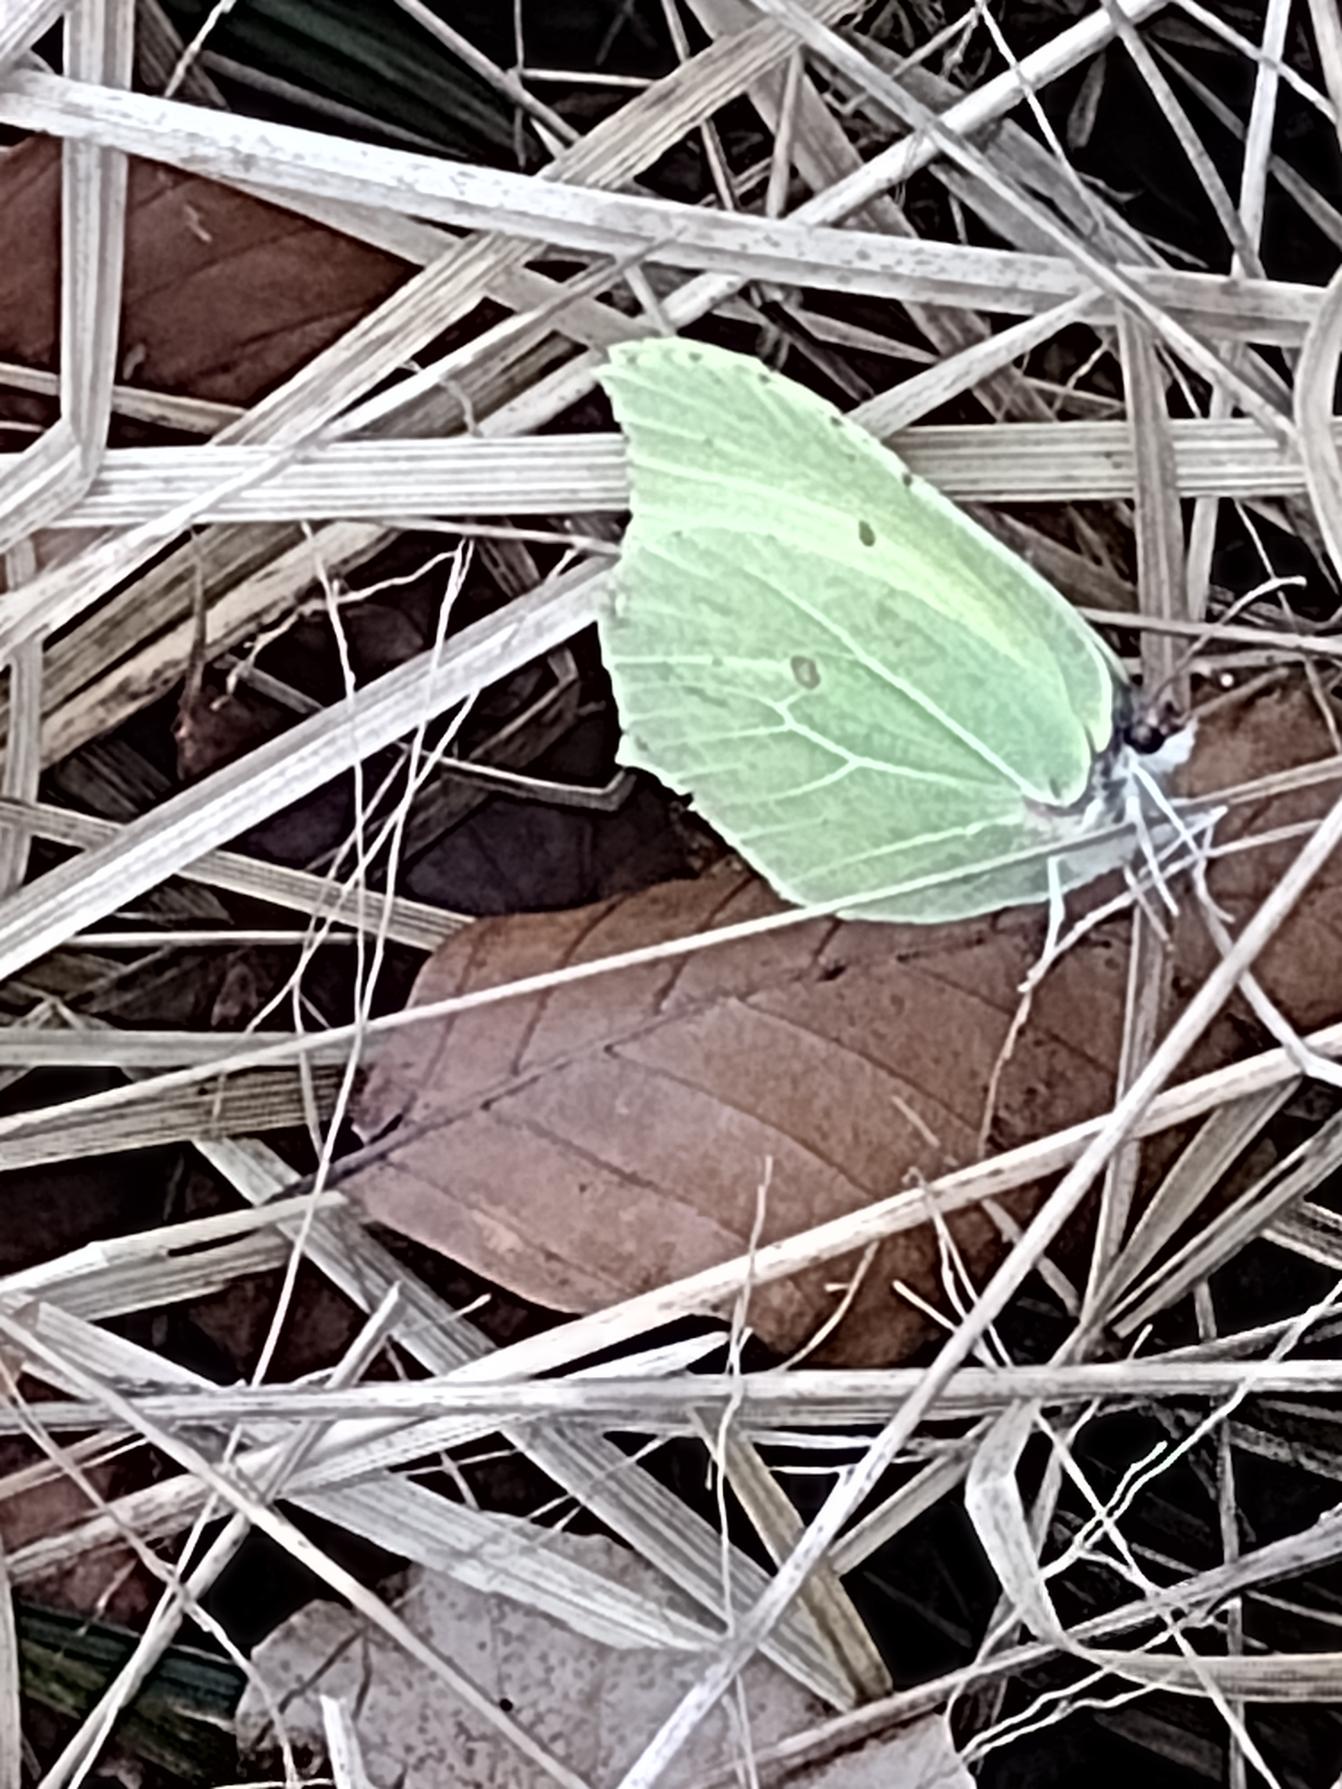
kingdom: Animalia
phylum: Arthropoda
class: Insecta
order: Lepidoptera
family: Pieridae
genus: Gonepteryx
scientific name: Gonepteryx rhamni
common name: Citronsommerfugl
